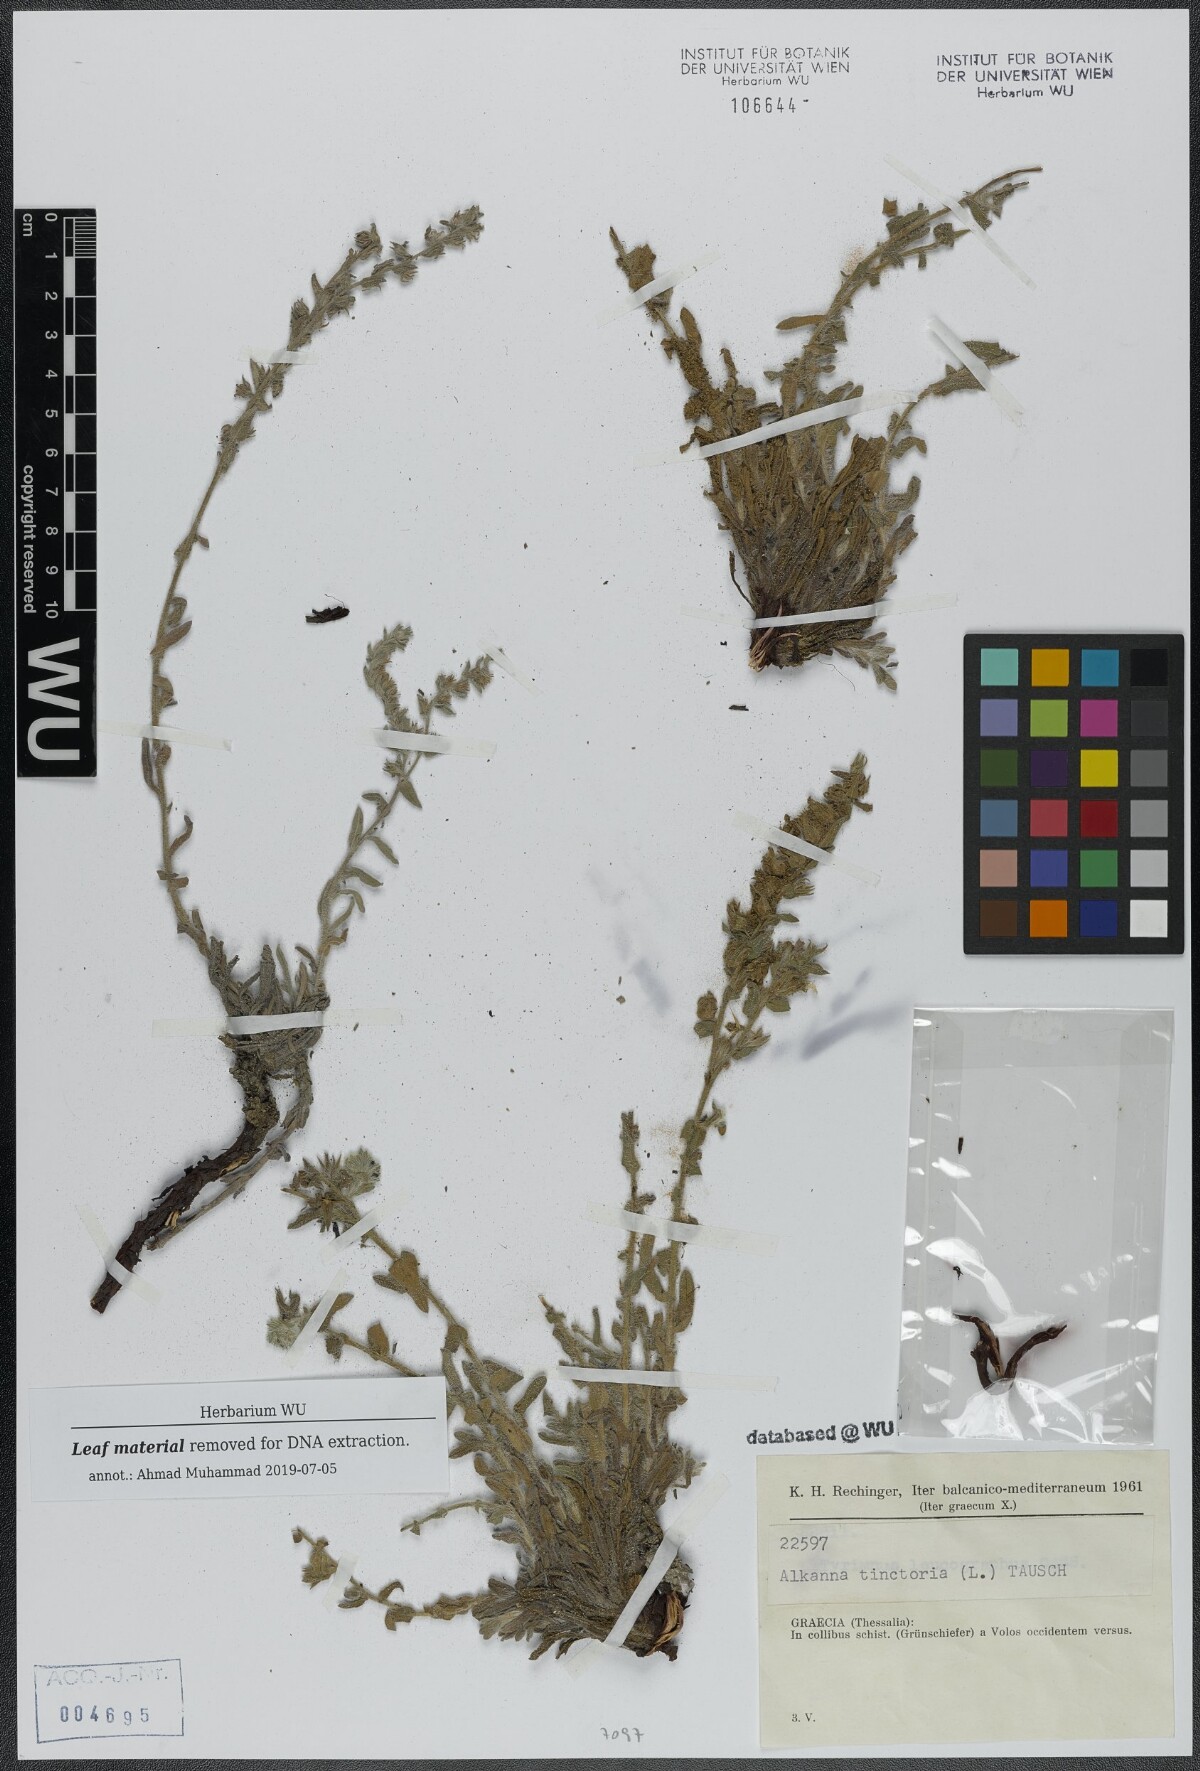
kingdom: Plantae
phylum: Tracheophyta
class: Magnoliopsida
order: Boraginales
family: Boraginaceae
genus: Alkanna
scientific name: Alkanna tinctoria
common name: Dyer's-alkanet
